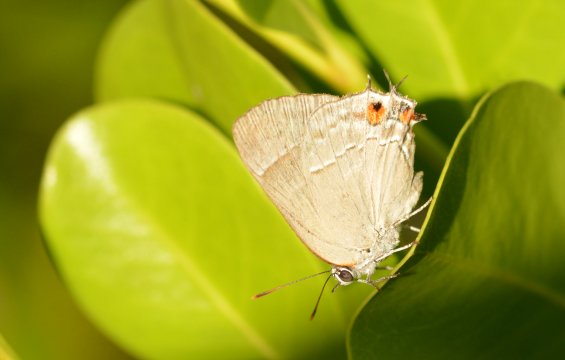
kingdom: Animalia
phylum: Arthropoda
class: Insecta
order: Lepidoptera
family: Lycaenidae
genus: Thecla
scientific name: Thecla marius
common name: Marius Hairstreak
